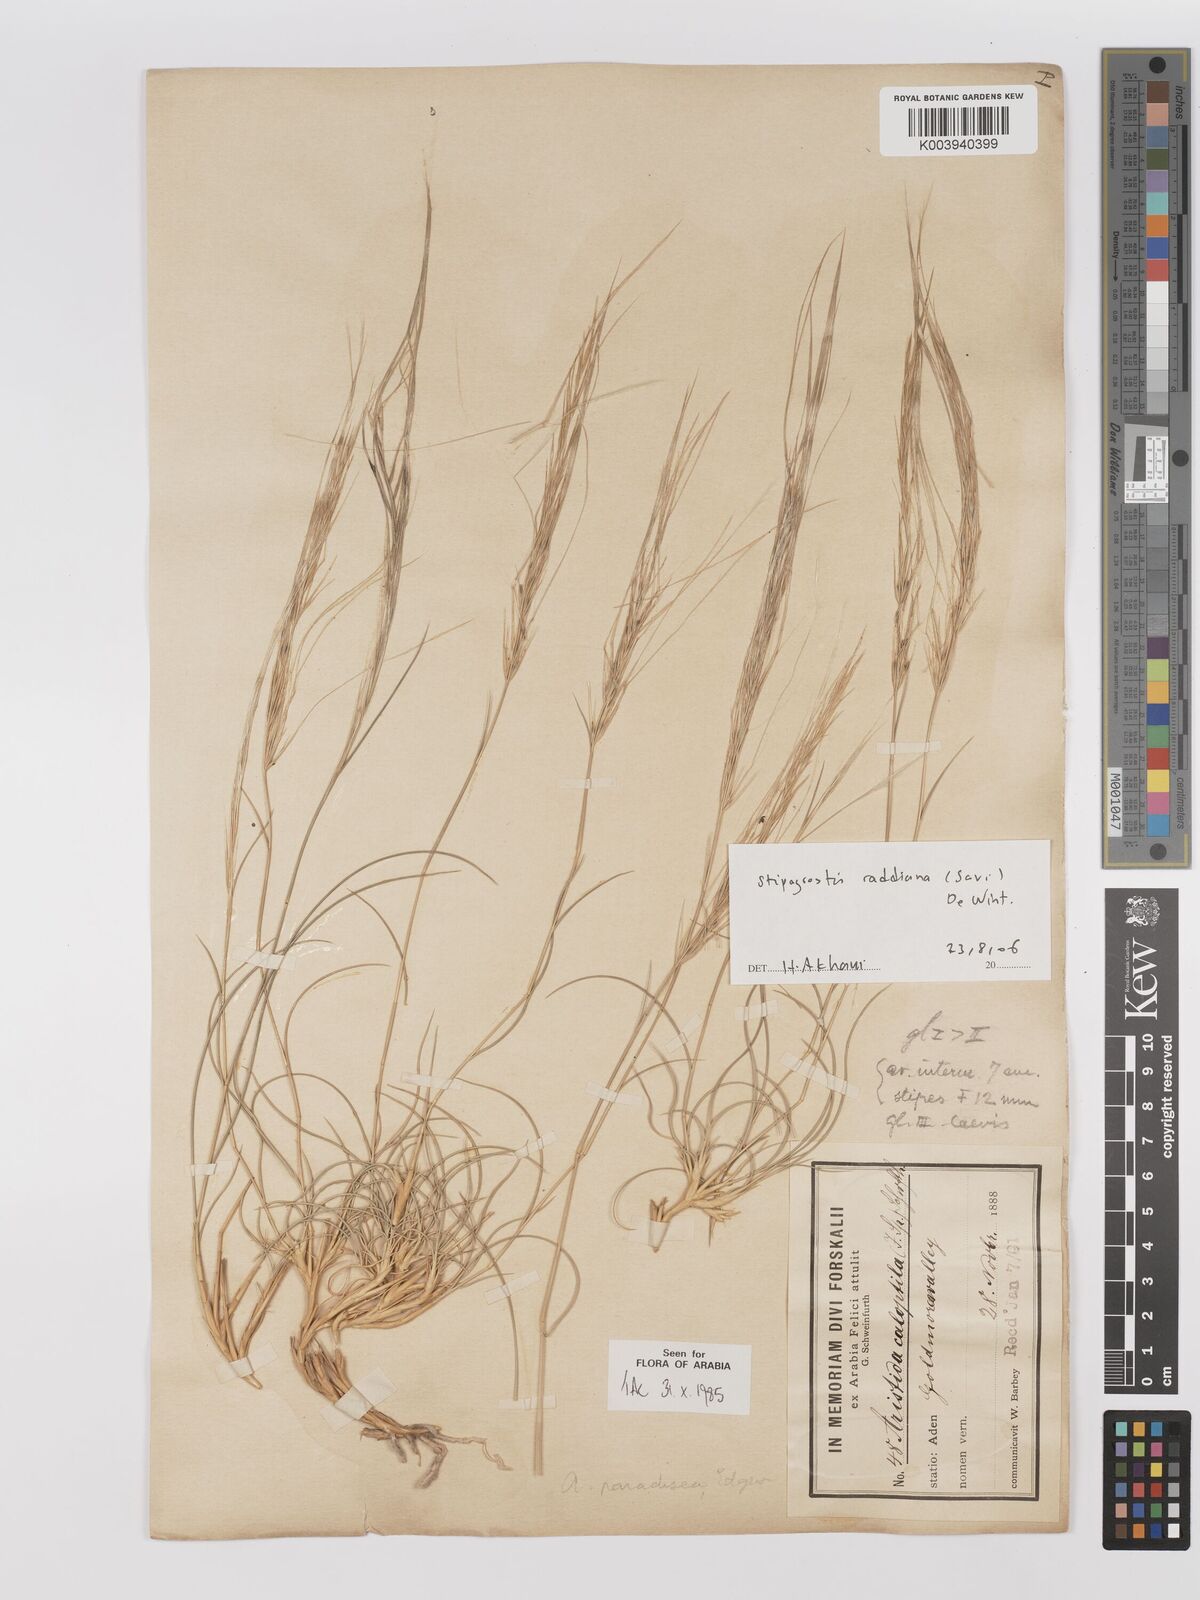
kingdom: Plantae
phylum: Tracheophyta
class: Liliopsida
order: Poales
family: Poaceae
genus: Stipagrostis
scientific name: Stipagrostis paradisea
